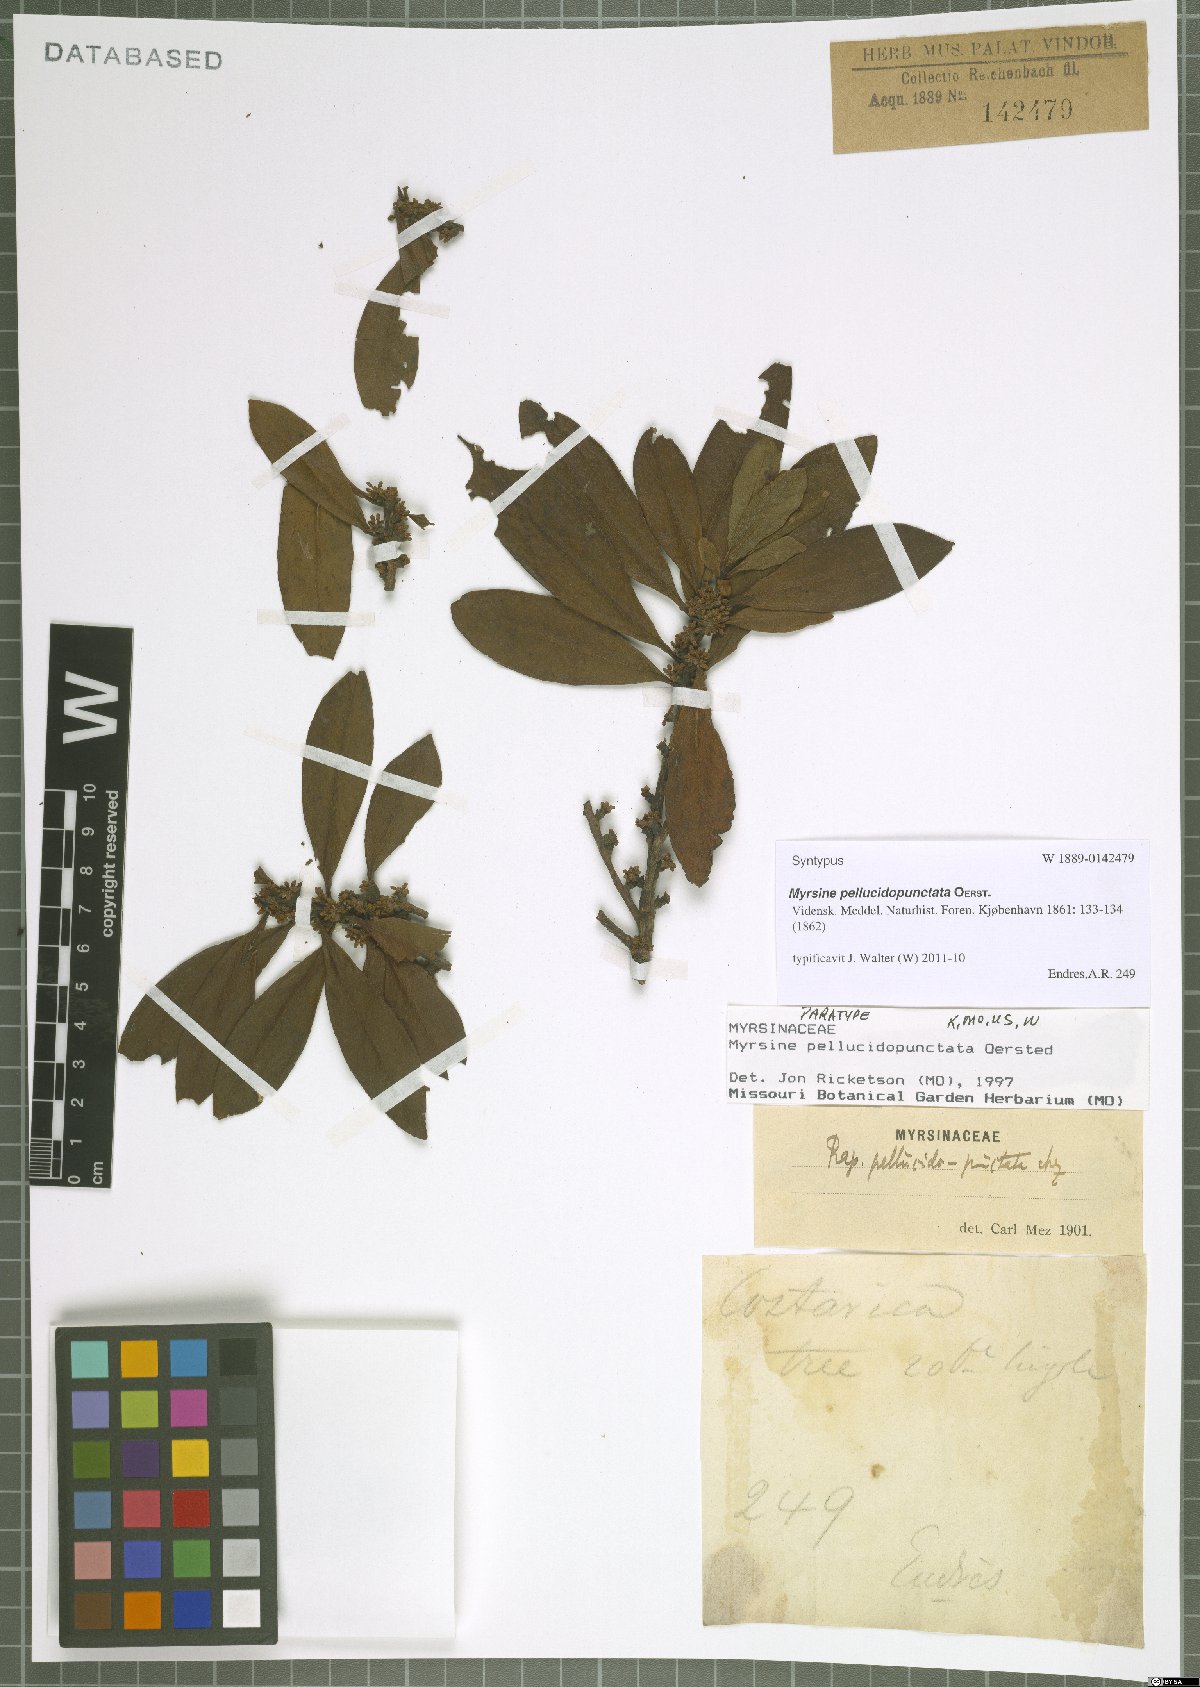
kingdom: Plantae
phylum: Tracheophyta
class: Magnoliopsida
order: Ericales
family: Primulaceae
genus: Myrsine
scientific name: Myrsine pellucidopunctata
